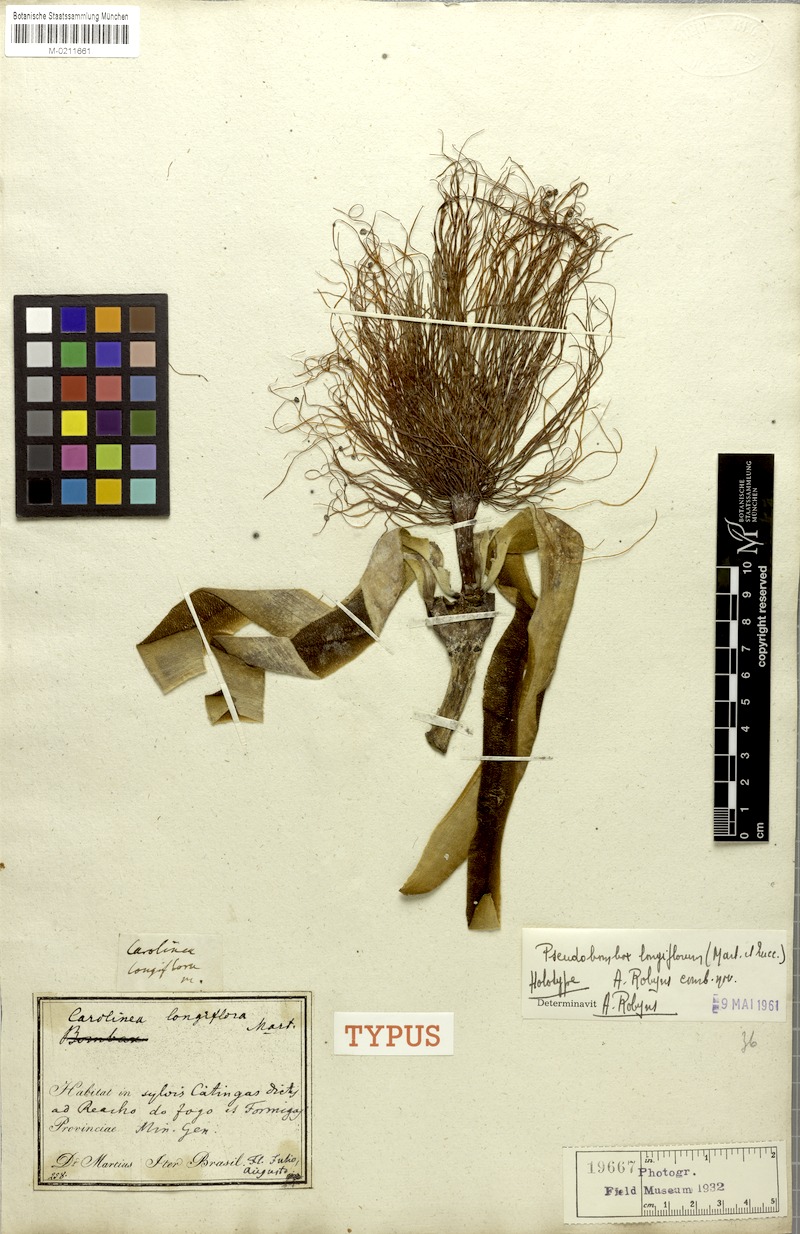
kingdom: Plantae
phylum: Tracheophyta
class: Magnoliopsida
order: Malvales
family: Malvaceae
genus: Pseudobombax
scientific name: Pseudobombax longiflorum
